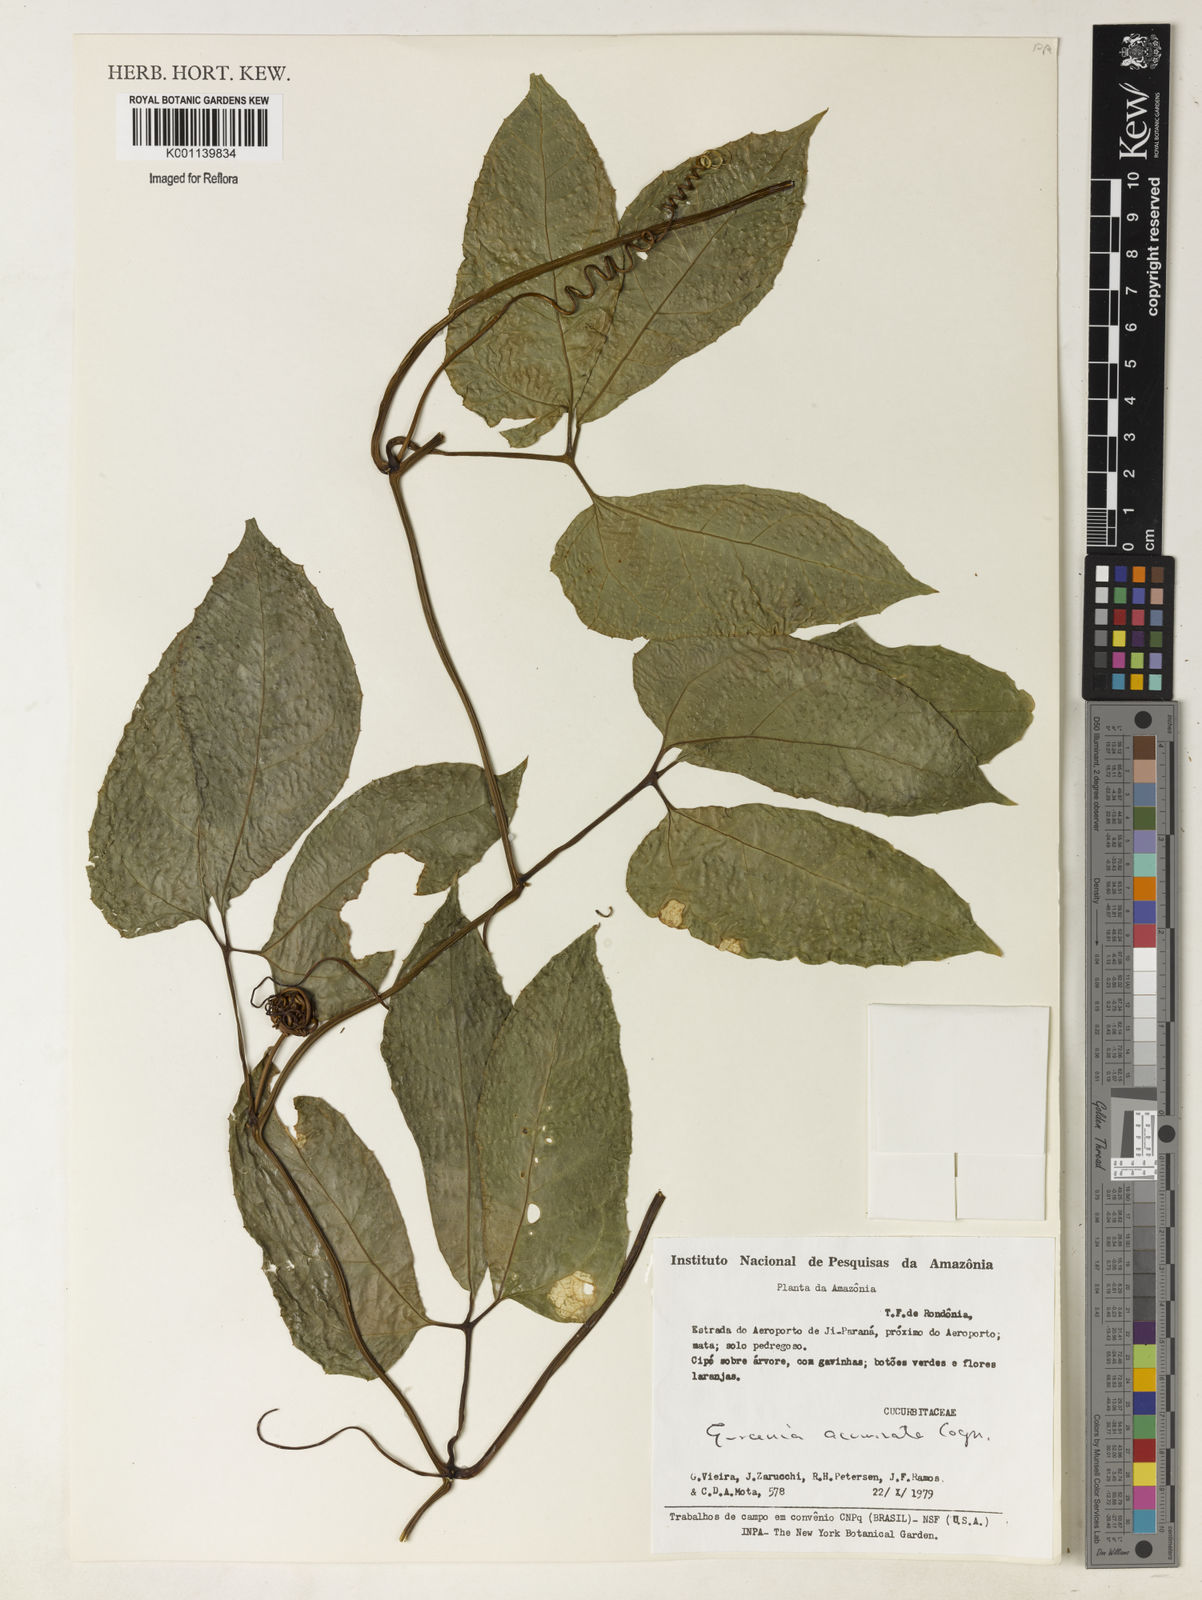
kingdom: Plantae
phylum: Tracheophyta
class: Magnoliopsida
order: Cucurbitales
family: Cucurbitaceae
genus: Gurania
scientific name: Gurania acuminata
